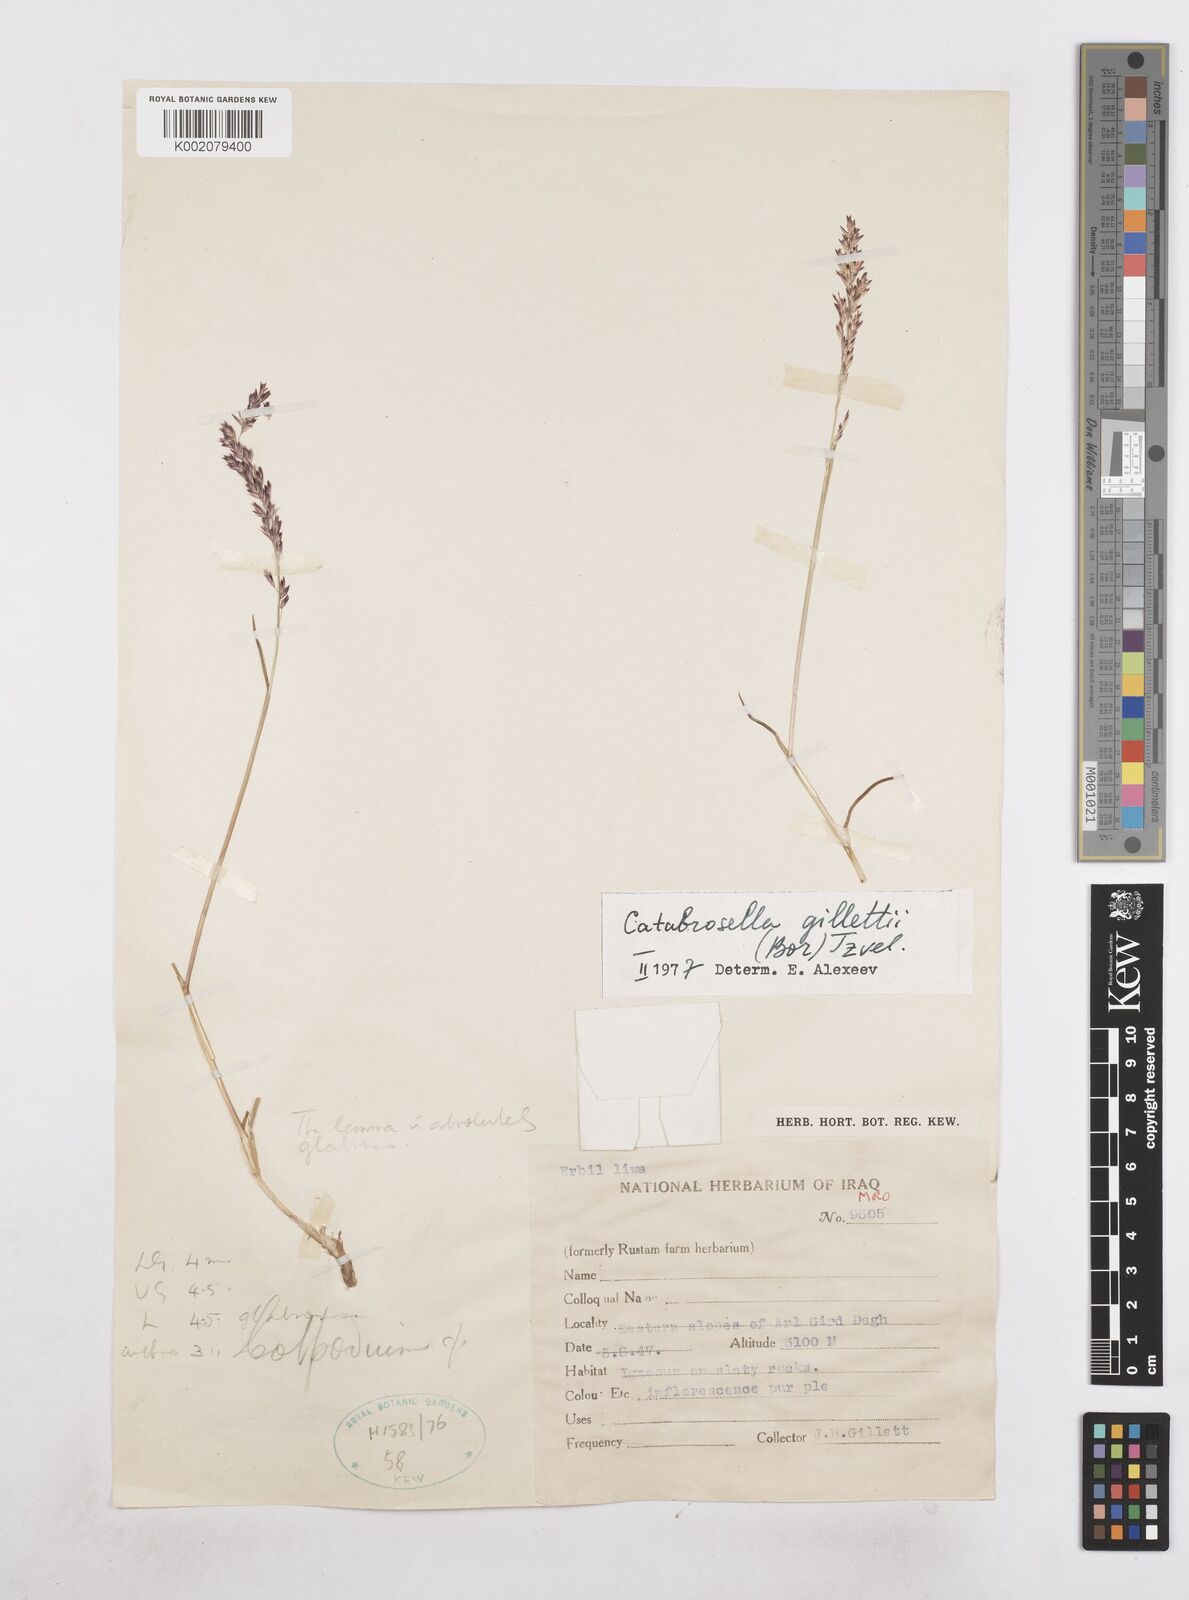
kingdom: Plantae
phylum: Tracheophyta
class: Liliopsida
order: Poales
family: Poaceae
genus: Catabrosella
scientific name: Catabrosella gillettii
